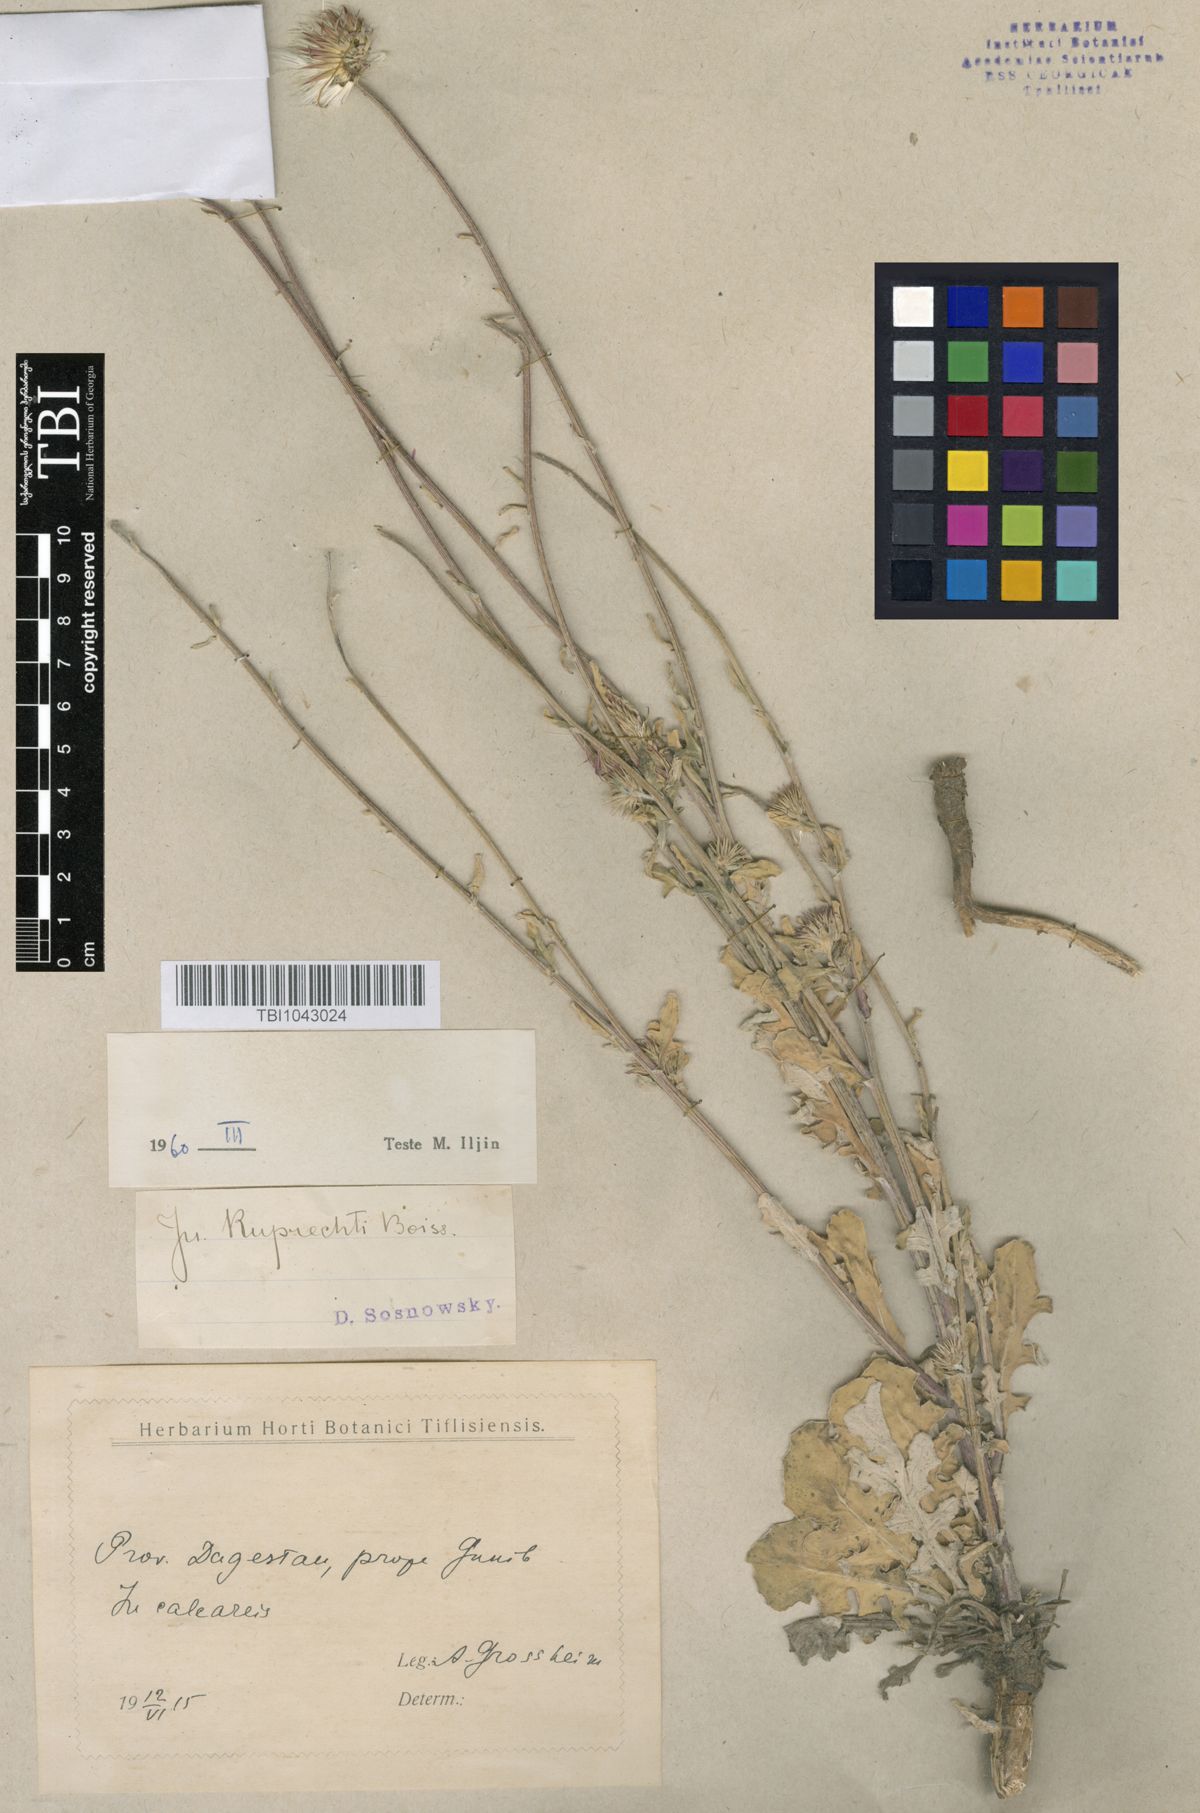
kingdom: Plantae
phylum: Tracheophyta
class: Magnoliopsida
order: Asterales
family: Asteraceae
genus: Jurinea
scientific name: Jurinea ruprechtii
